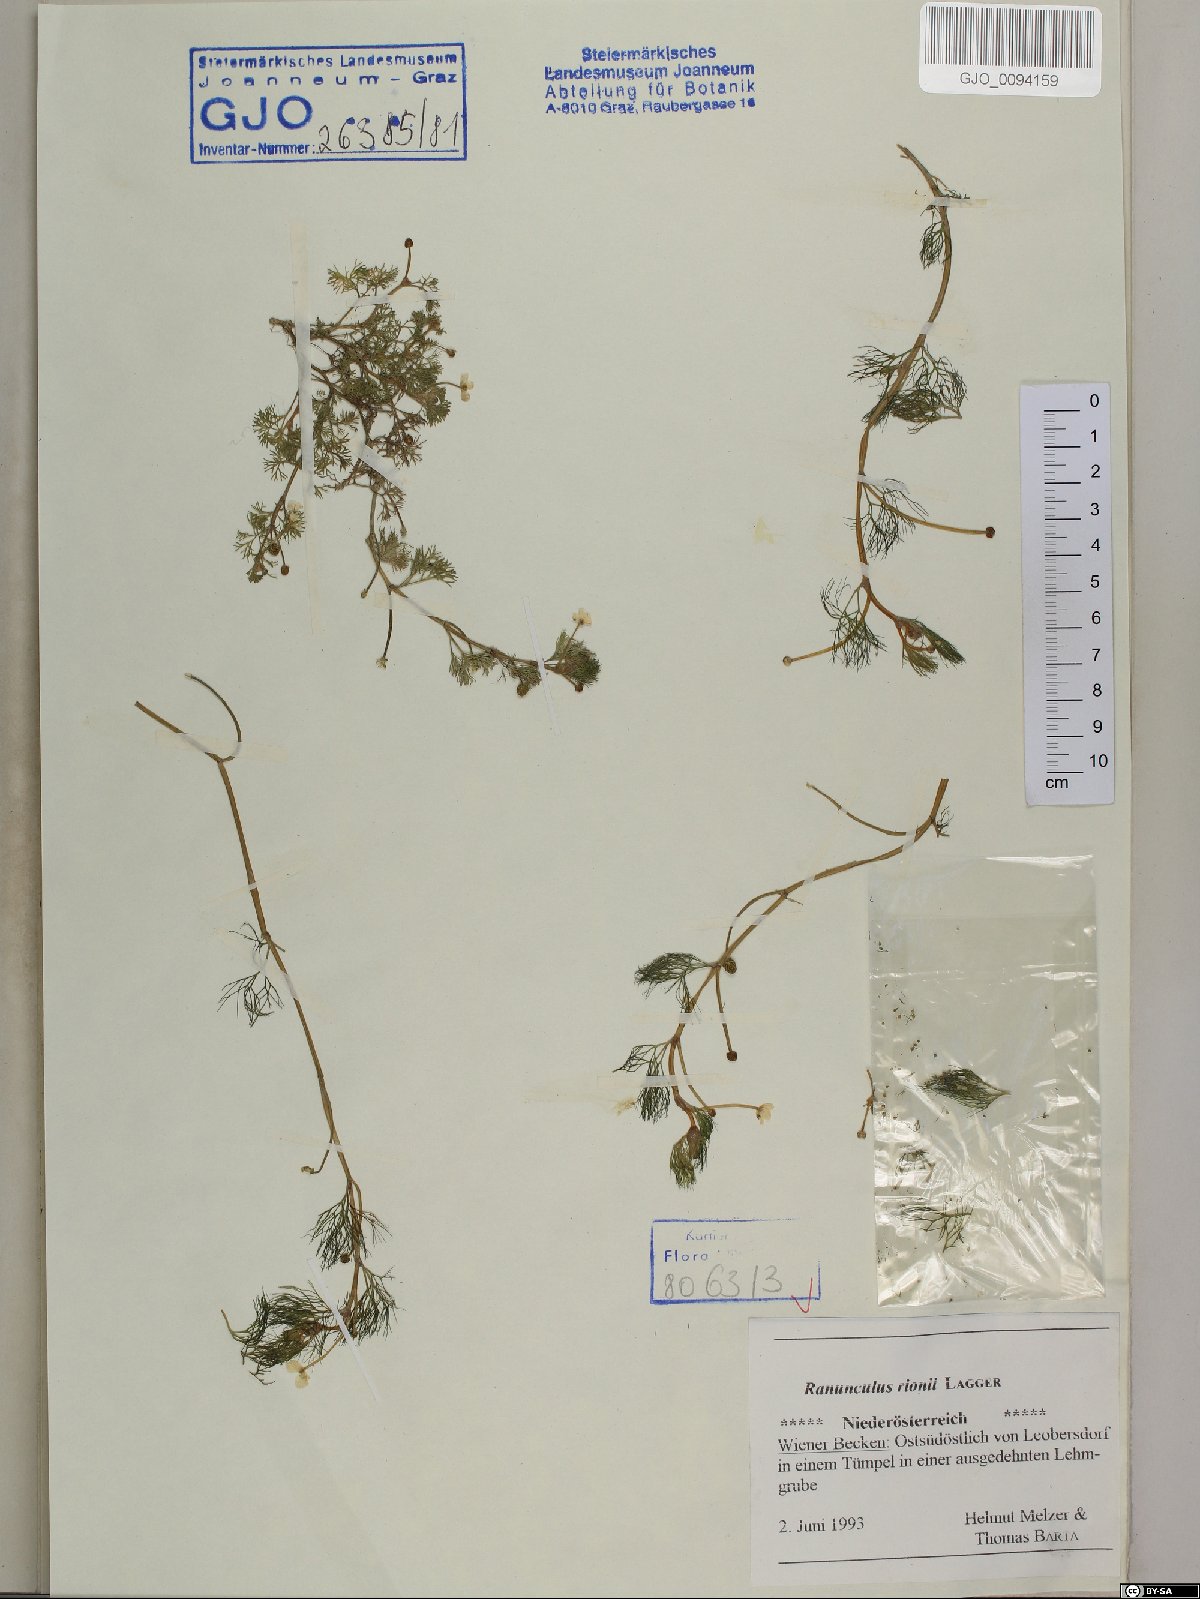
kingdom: Plantae
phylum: Tracheophyta
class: Magnoliopsida
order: Ranunculales
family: Ranunculaceae
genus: Ranunculus
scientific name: Ranunculus rionii
